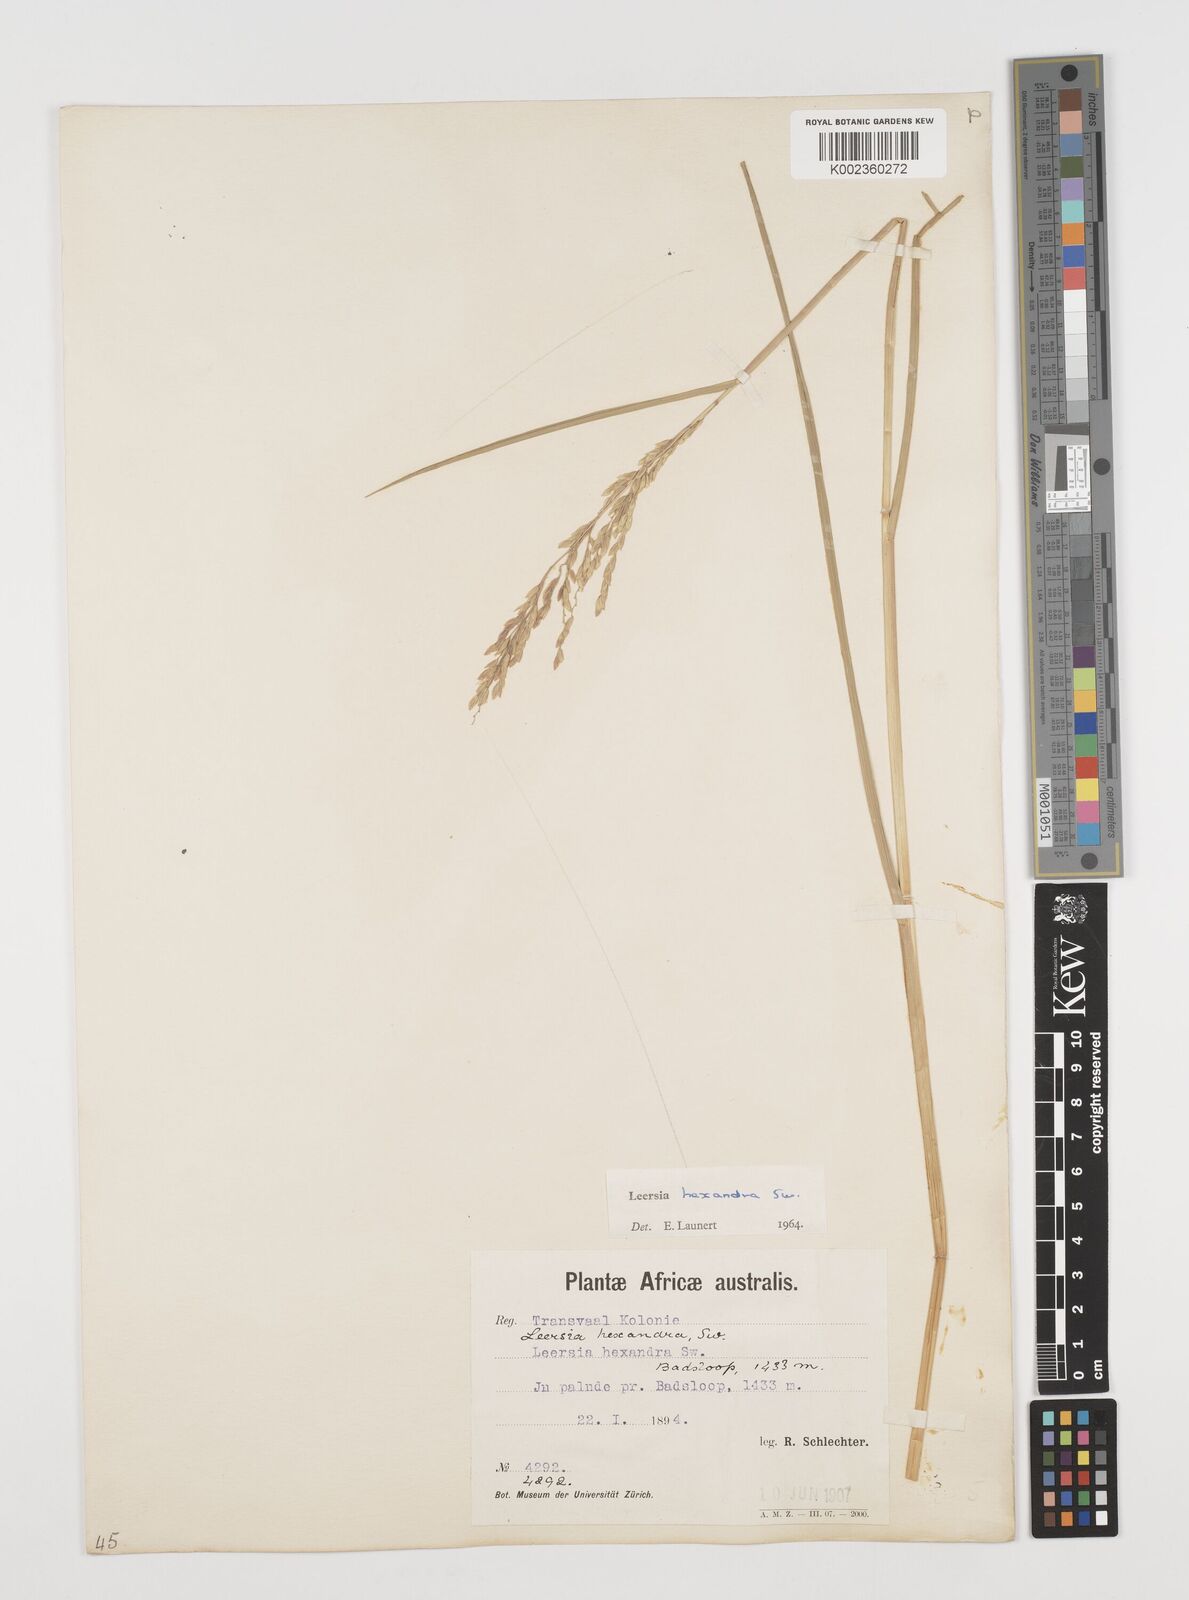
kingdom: Plantae
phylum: Tracheophyta
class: Liliopsida
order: Poales
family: Poaceae
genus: Leersia
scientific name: Leersia hexandra
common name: Southern cut grass
